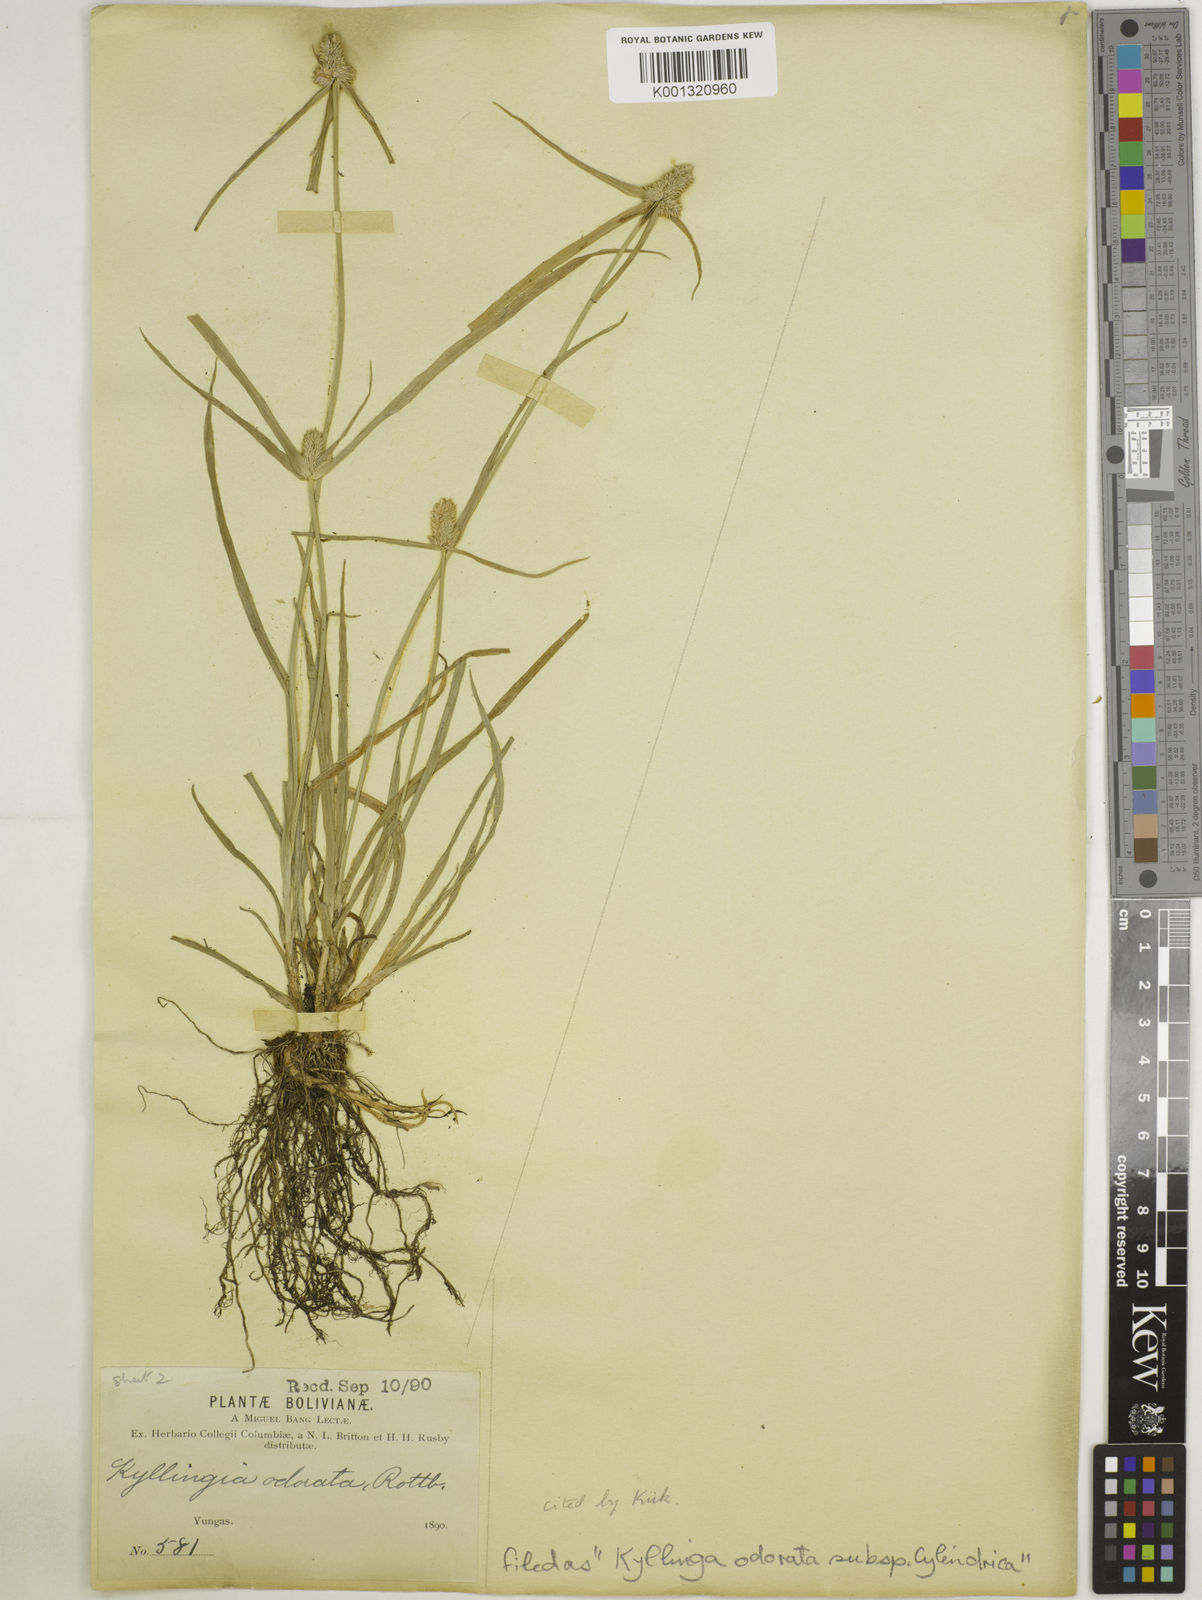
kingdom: Plantae
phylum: Tracheophyta
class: Liliopsida
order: Poales
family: Cyperaceae
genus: Cyperus
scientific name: Cyperus
